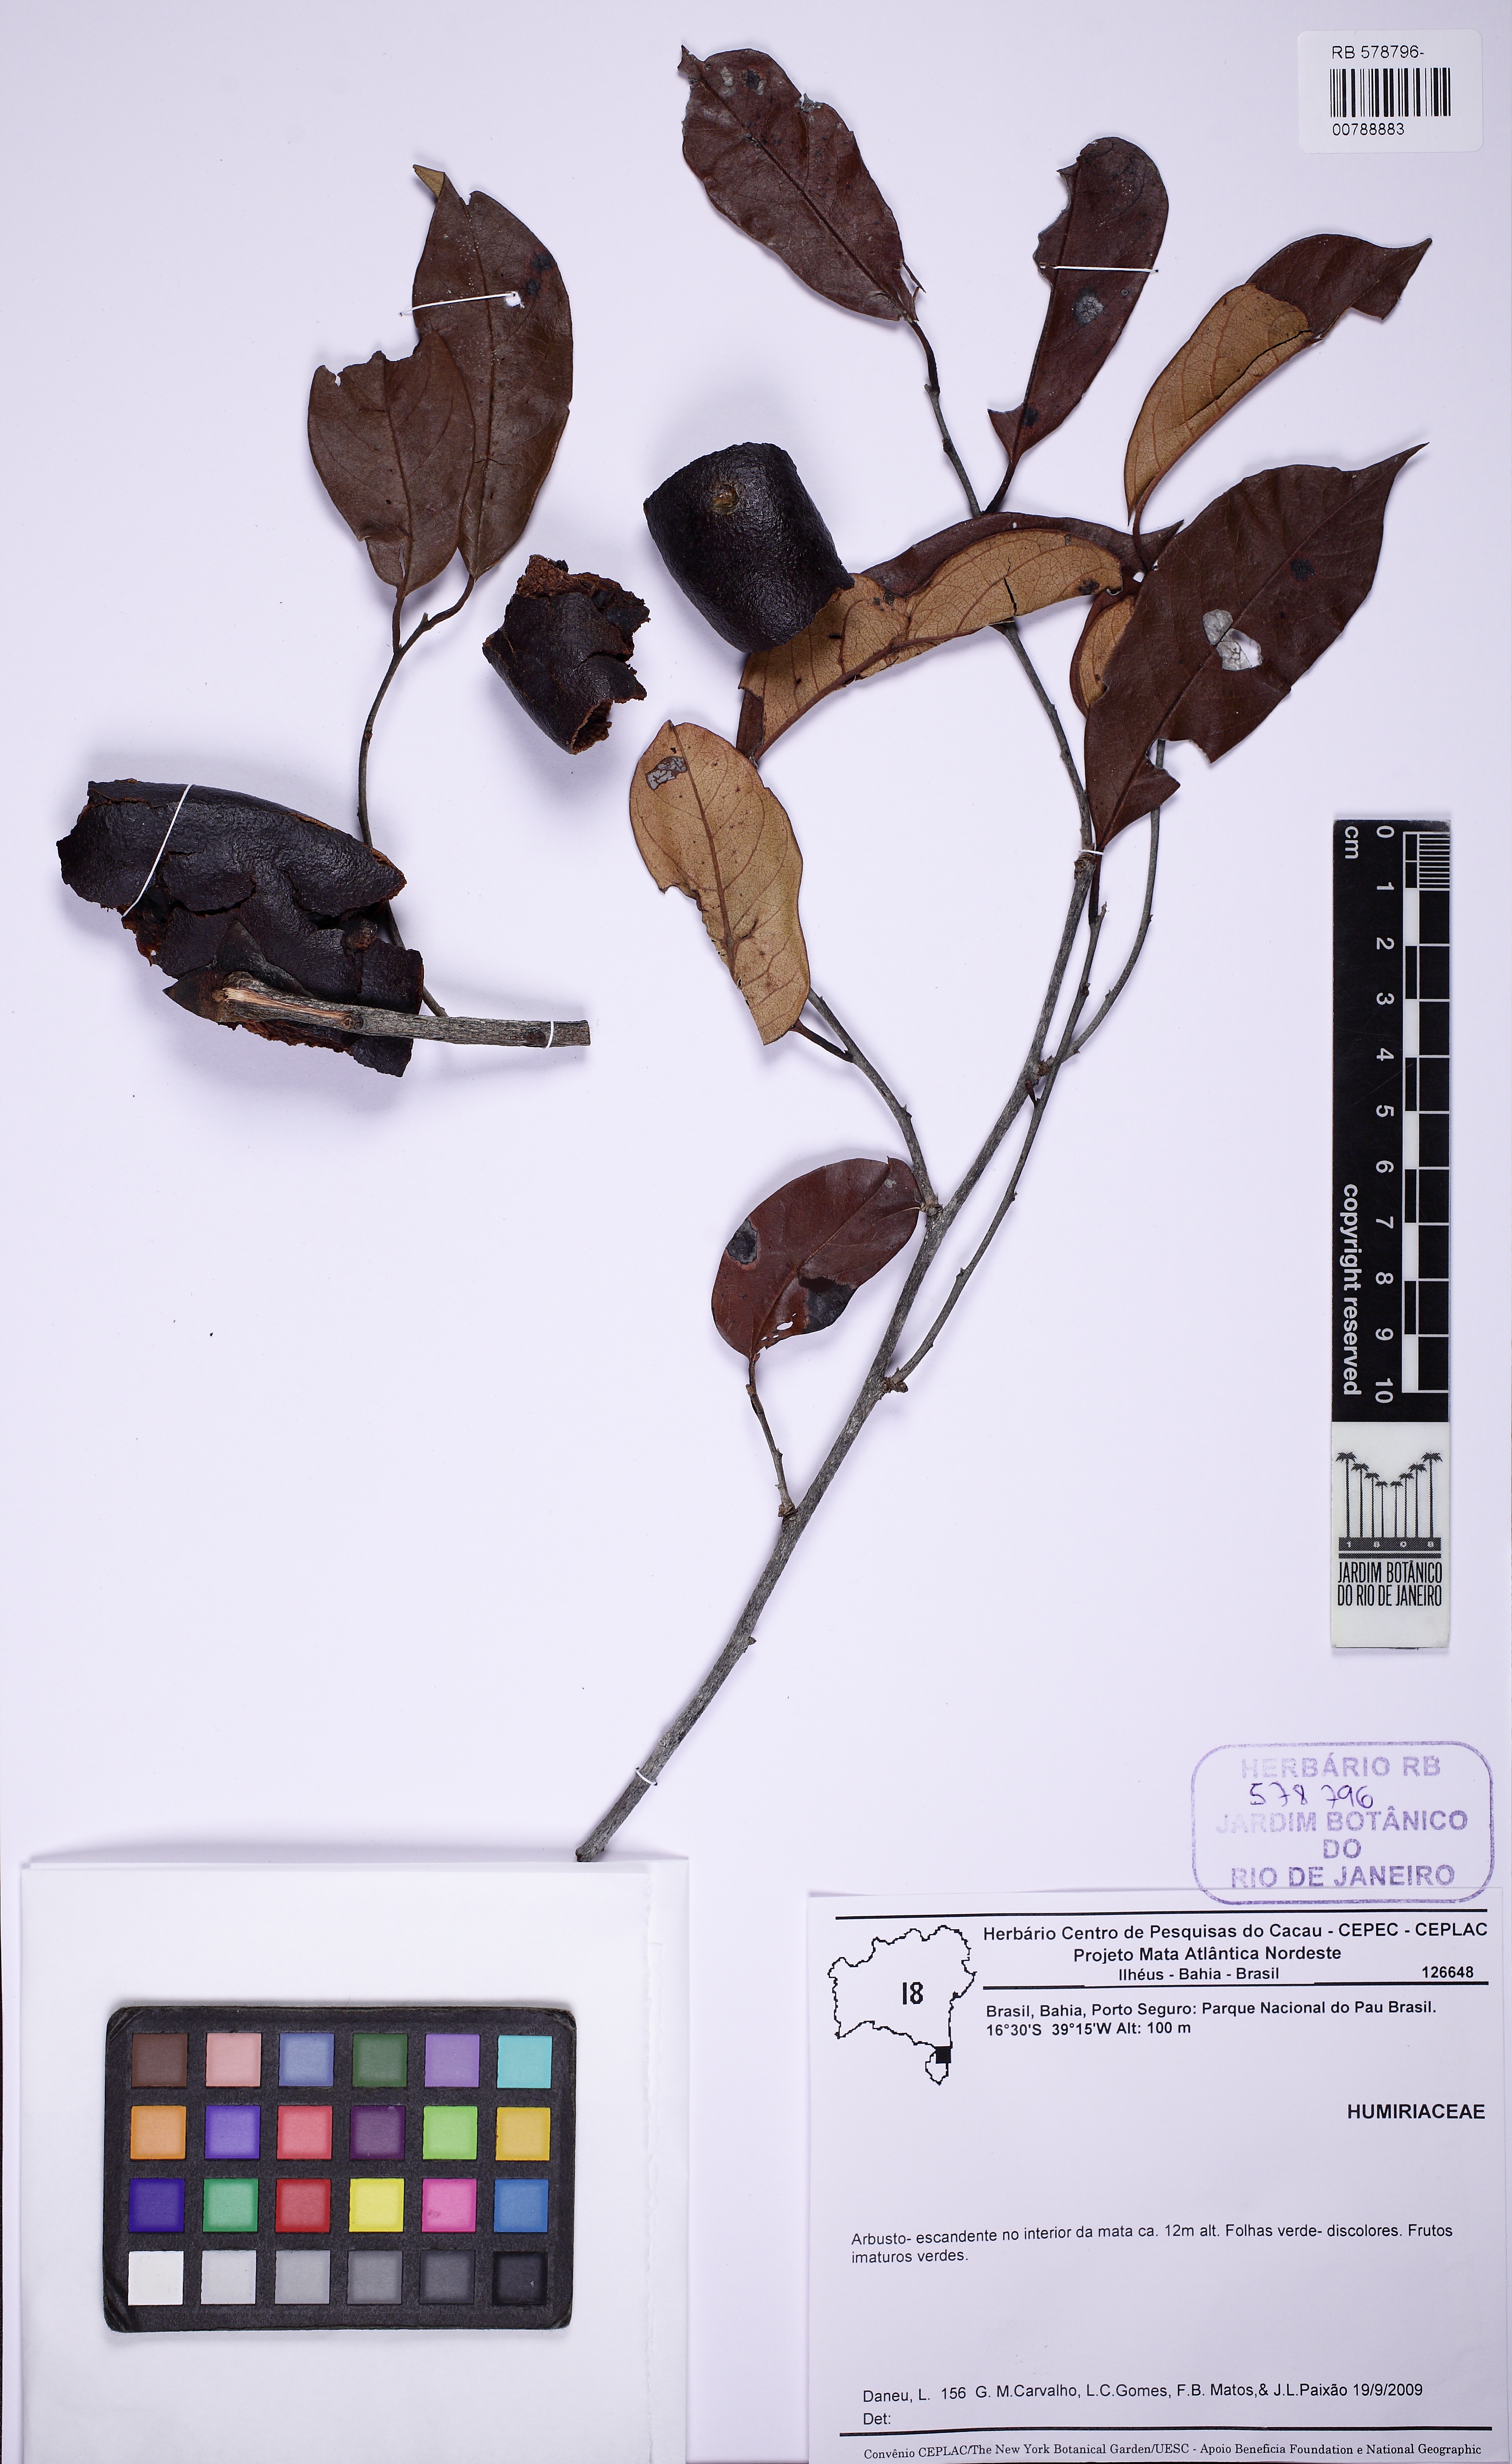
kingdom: Plantae
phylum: Tracheophyta
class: Magnoliopsida
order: Ericales
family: Ebenaceae
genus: Diospyros
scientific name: Diospyros
